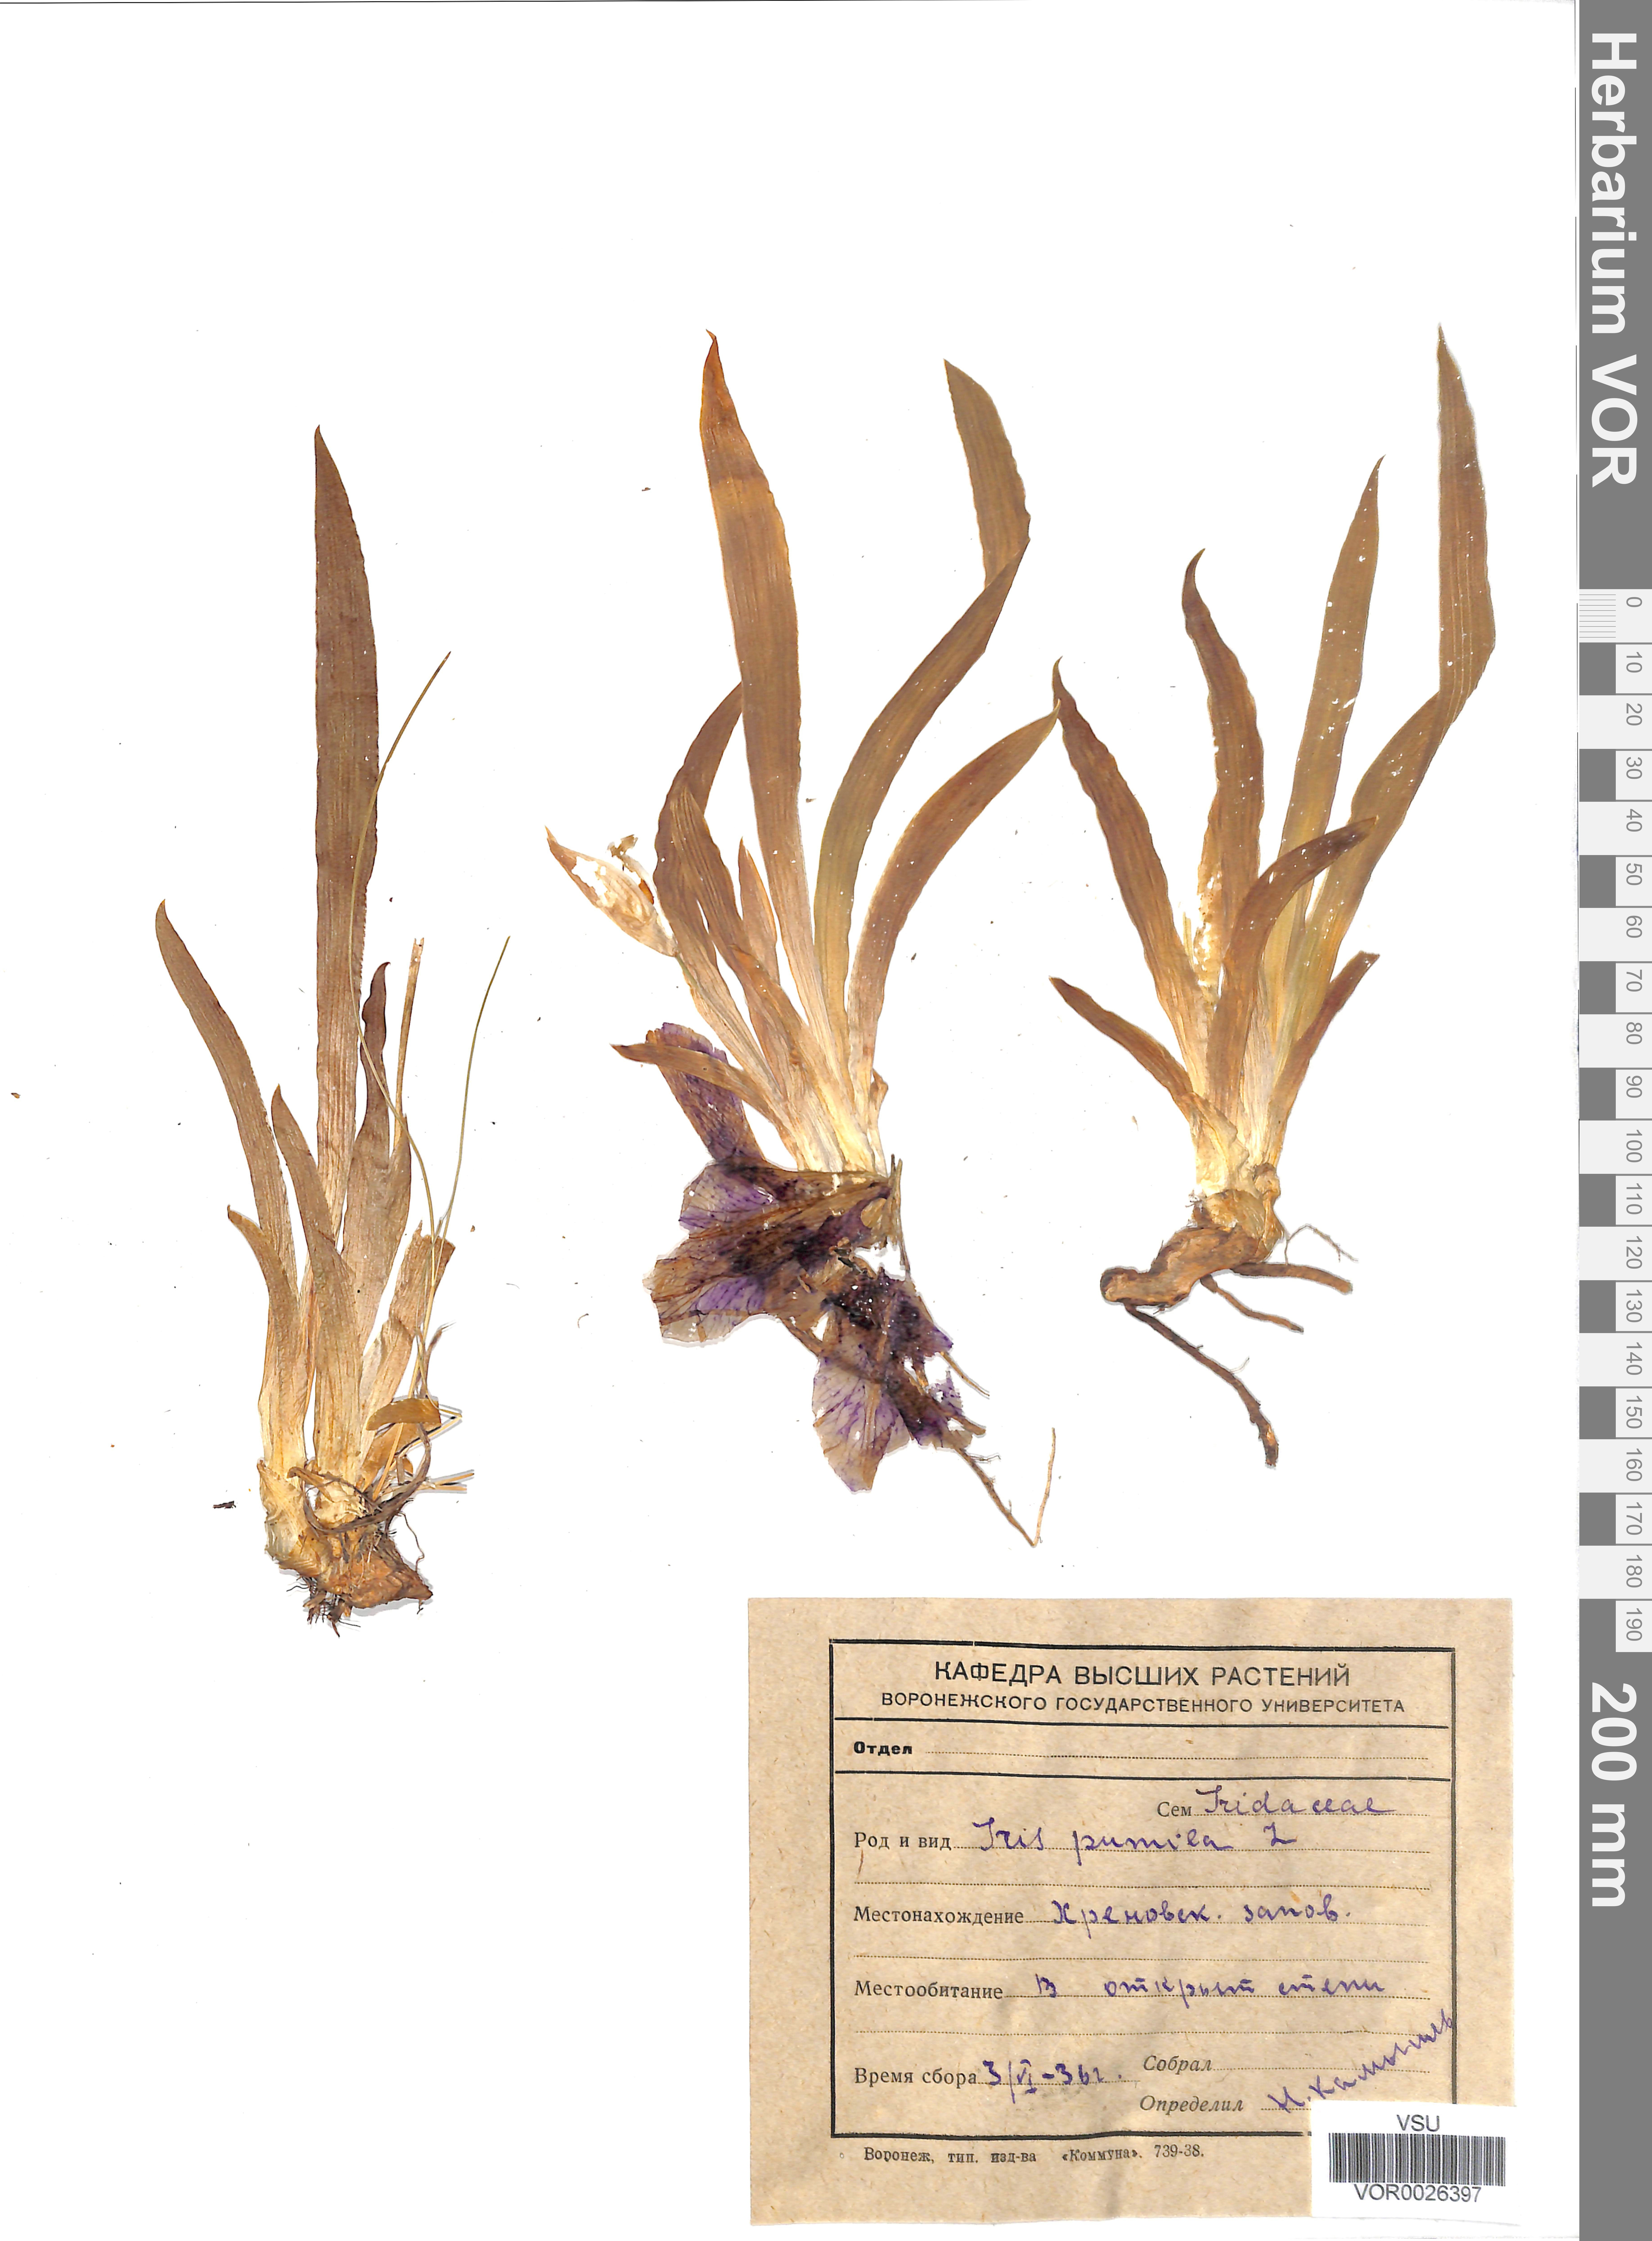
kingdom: Plantae
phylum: Tracheophyta
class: Liliopsida
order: Asparagales
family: Iridaceae
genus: Iris
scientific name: Iris pumila
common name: Dwarf iris
